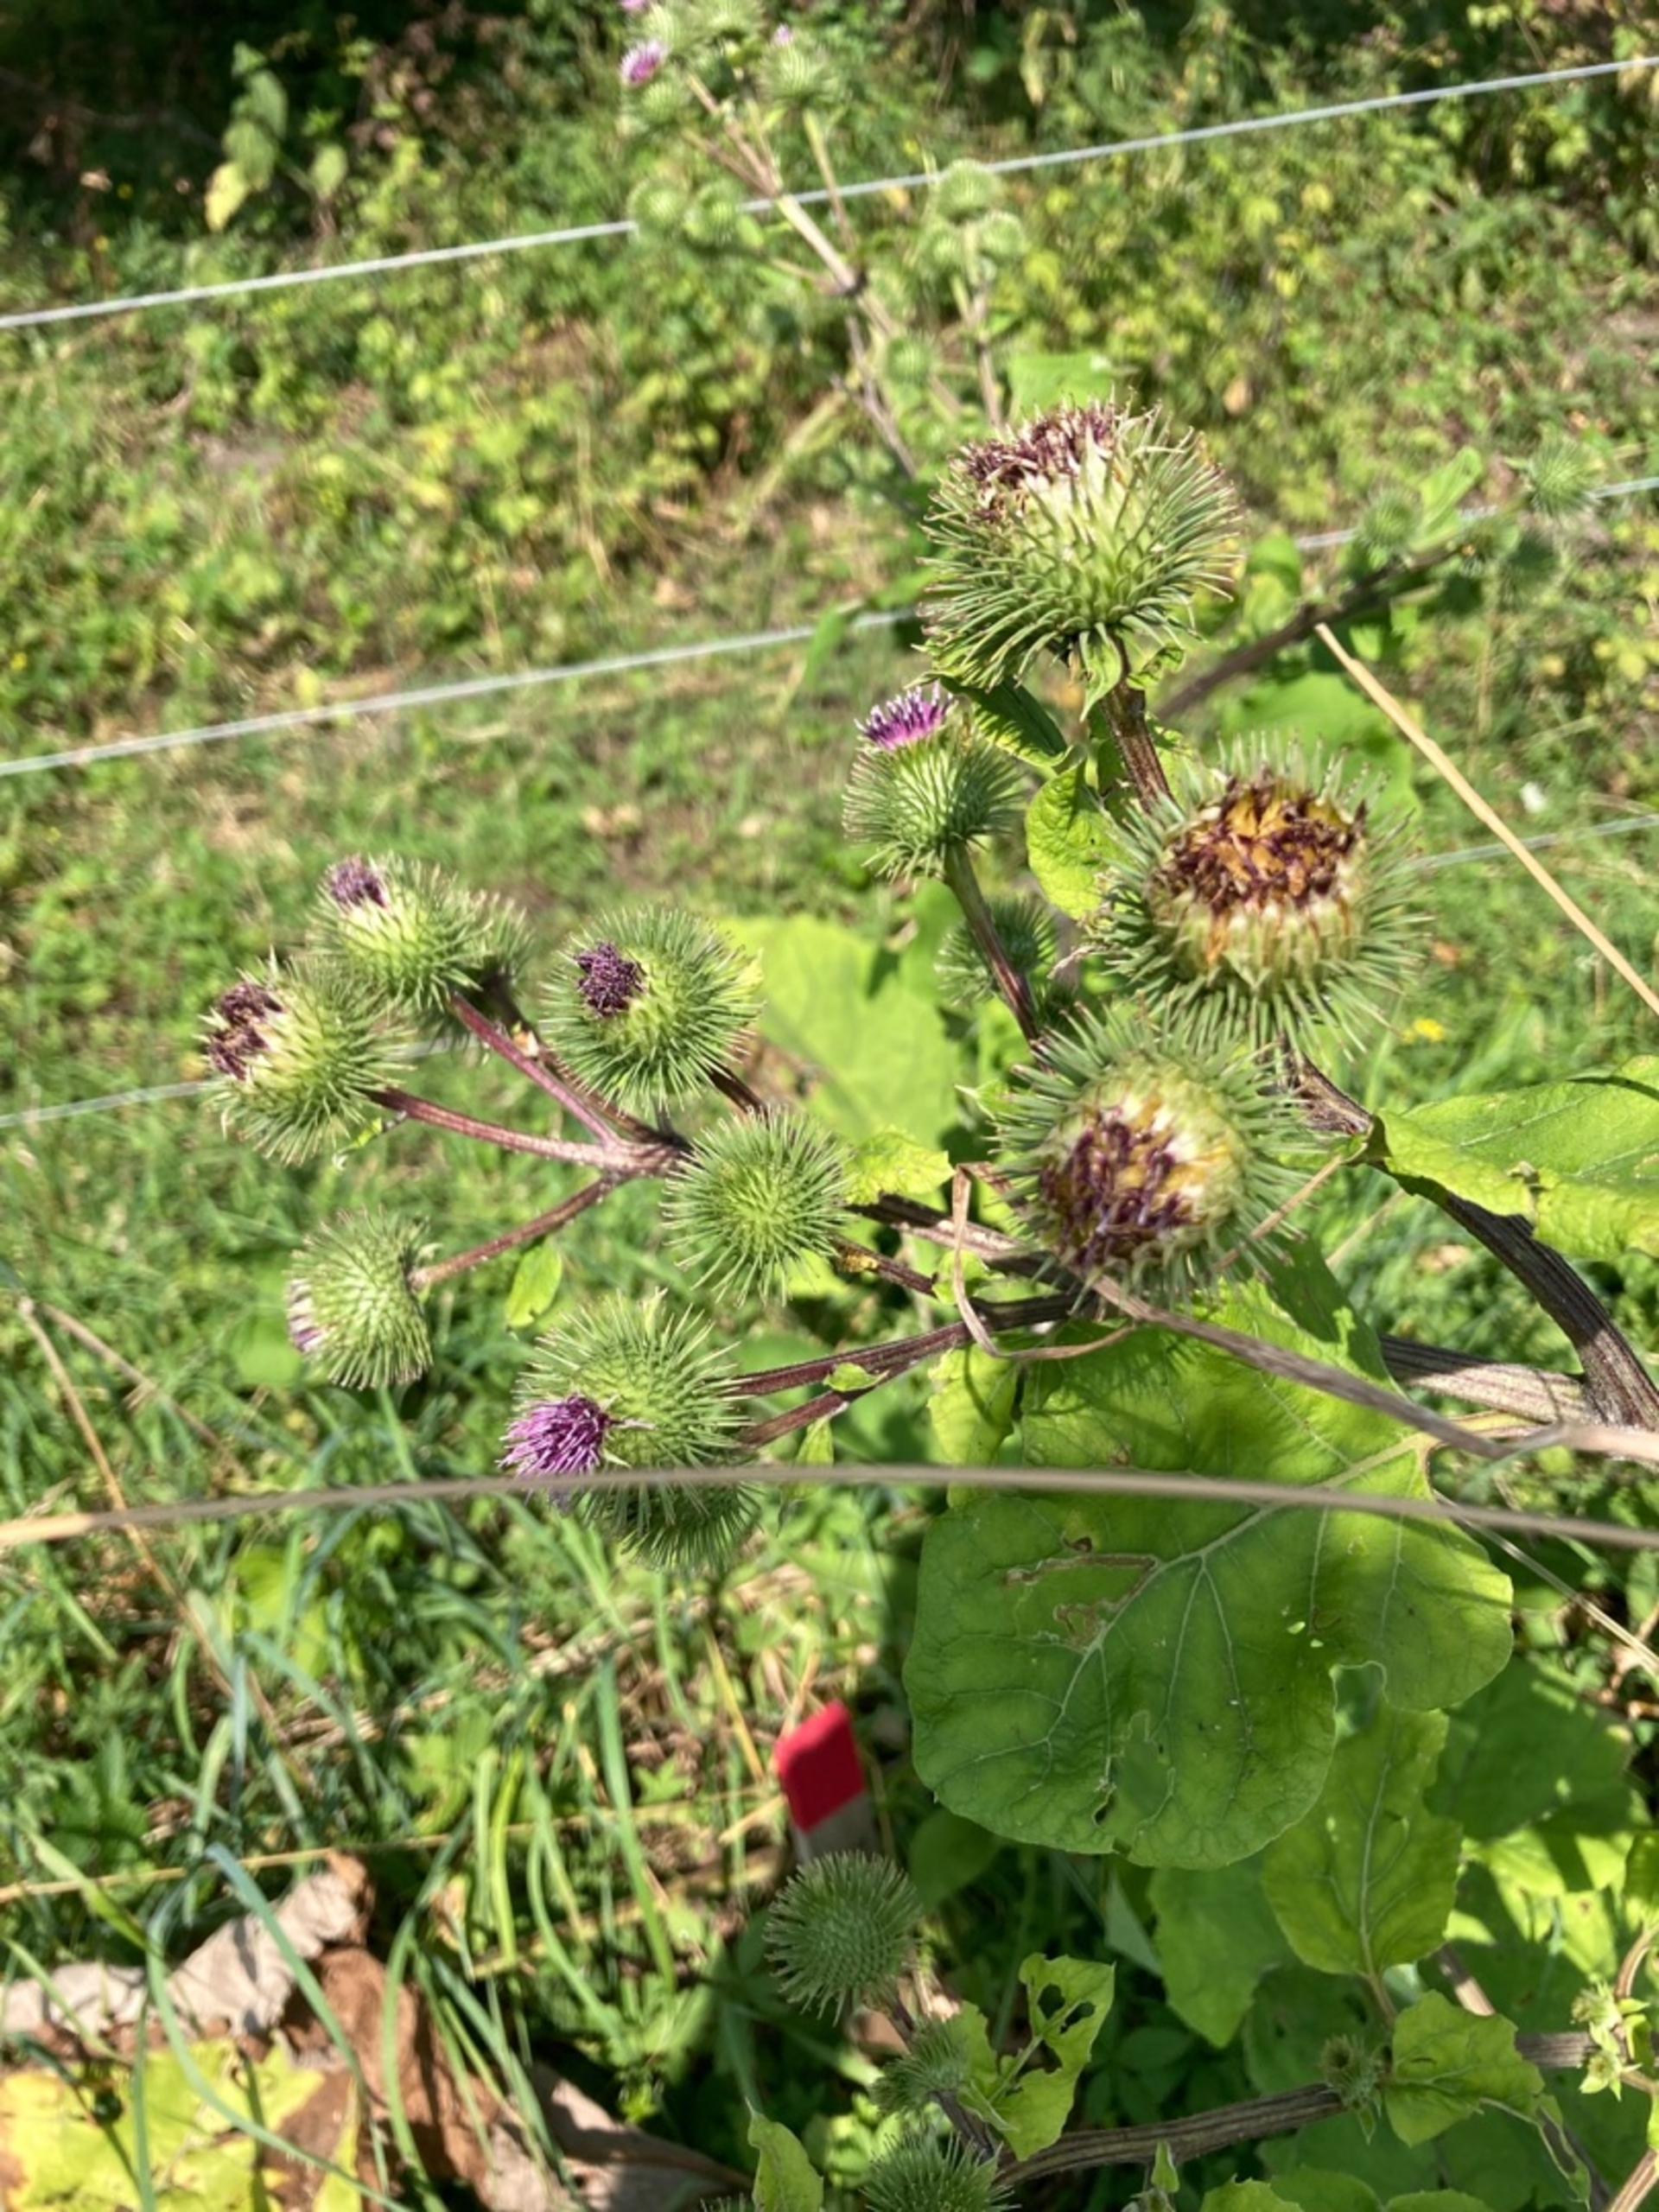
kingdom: Plantae
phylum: Tracheophyta
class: Magnoliopsida
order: Asterales
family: Asteraceae
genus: Arctium
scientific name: Arctium nemorosum
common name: Skov-burre
